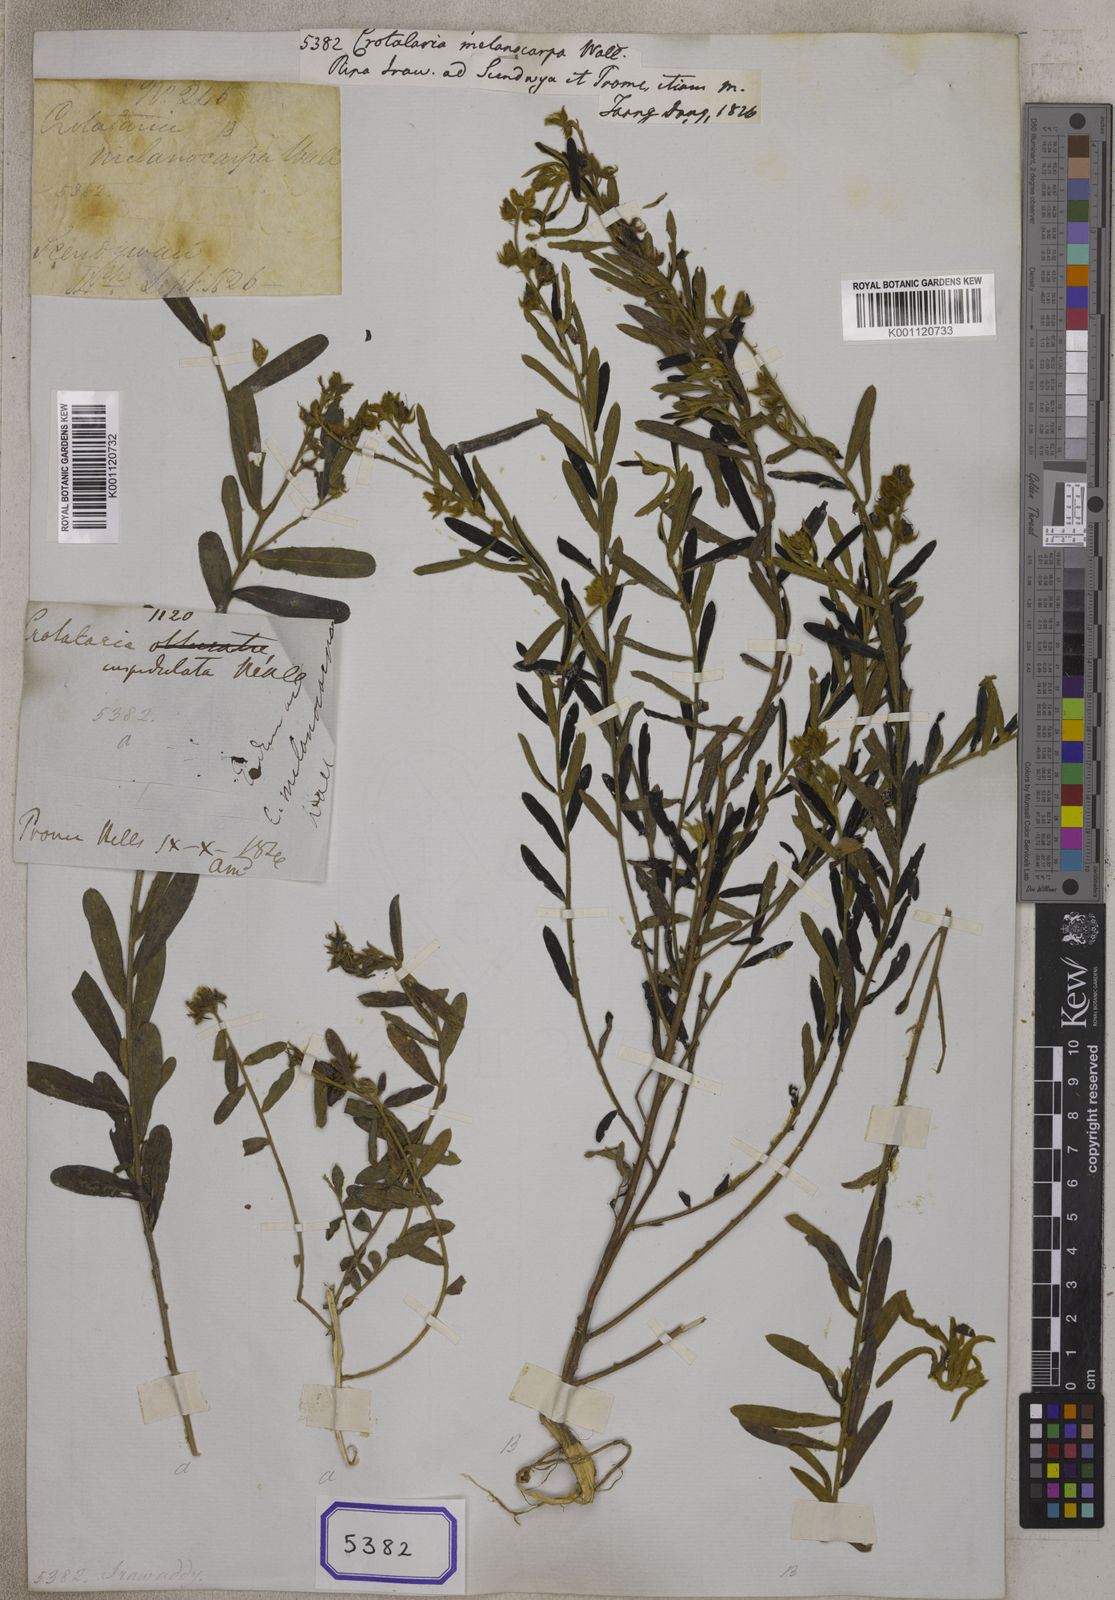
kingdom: Plantae
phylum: Tracheophyta
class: Magnoliopsida
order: Fabales
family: Fabaceae
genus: Crotalaria
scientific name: Crotalaria
